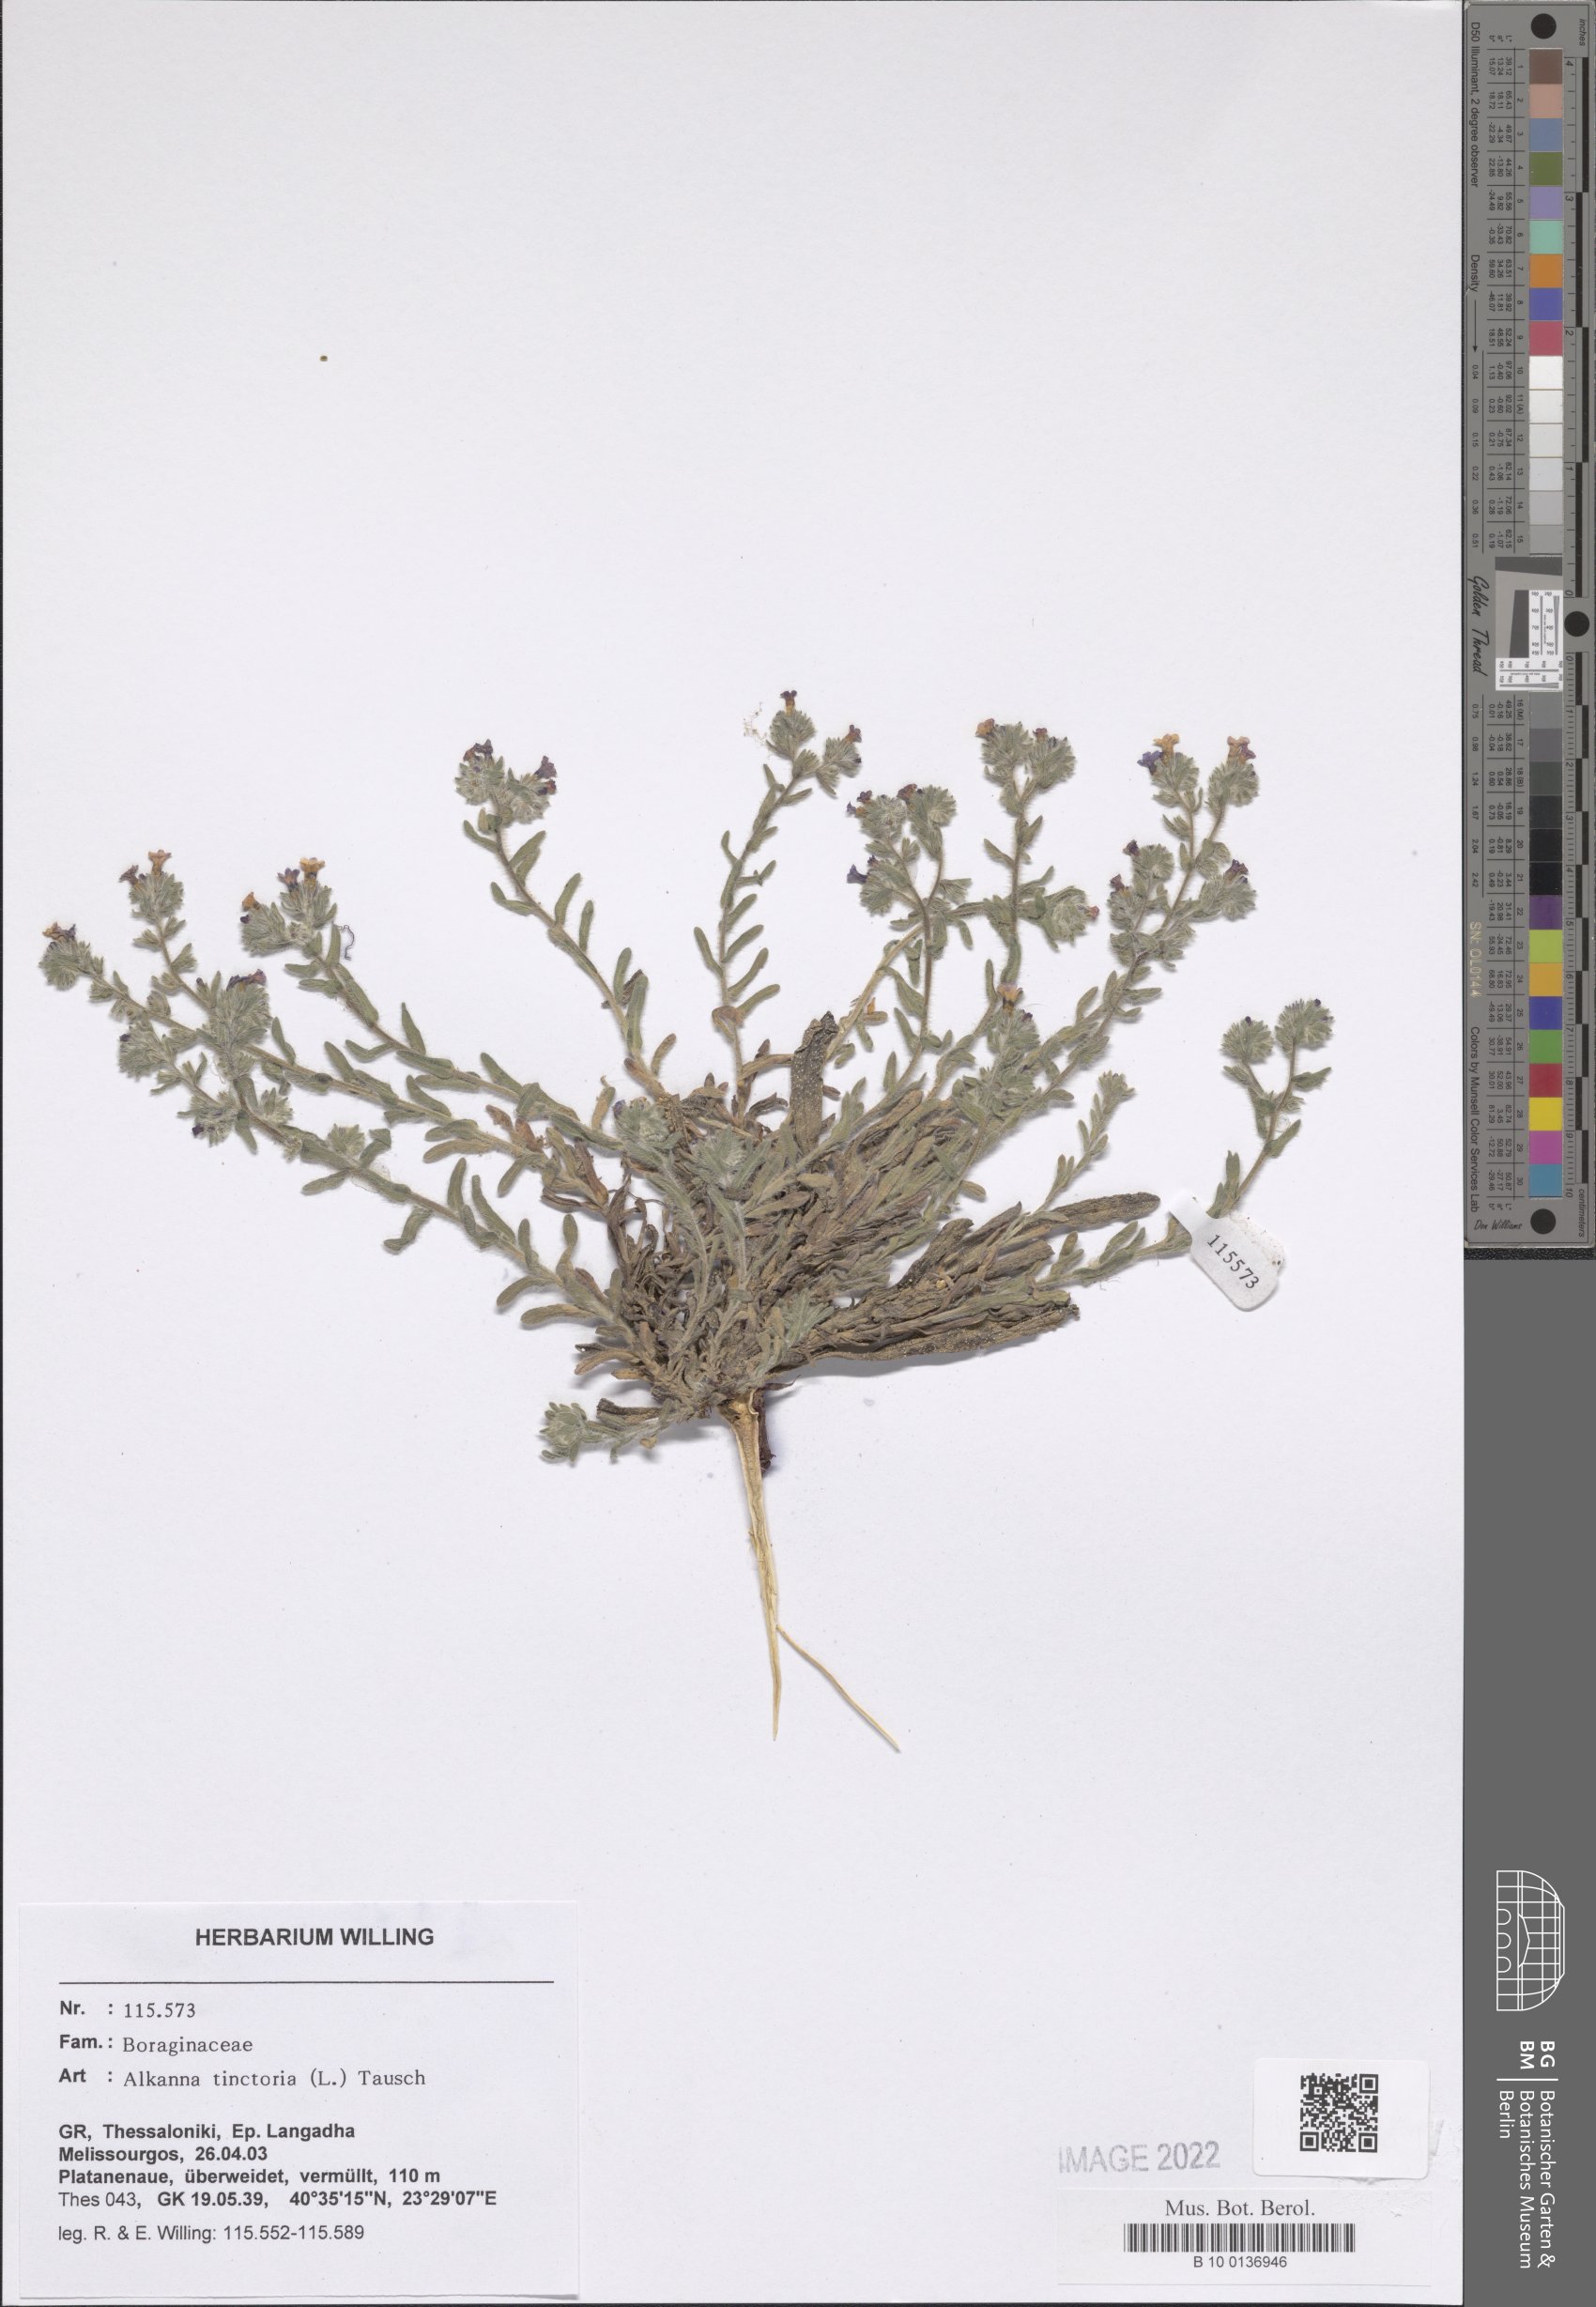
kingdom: Plantae
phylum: Tracheophyta
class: Magnoliopsida
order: Boraginales
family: Boraginaceae
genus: Alkanna
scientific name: Alkanna tinctoria
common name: Dyer's-alkanet
